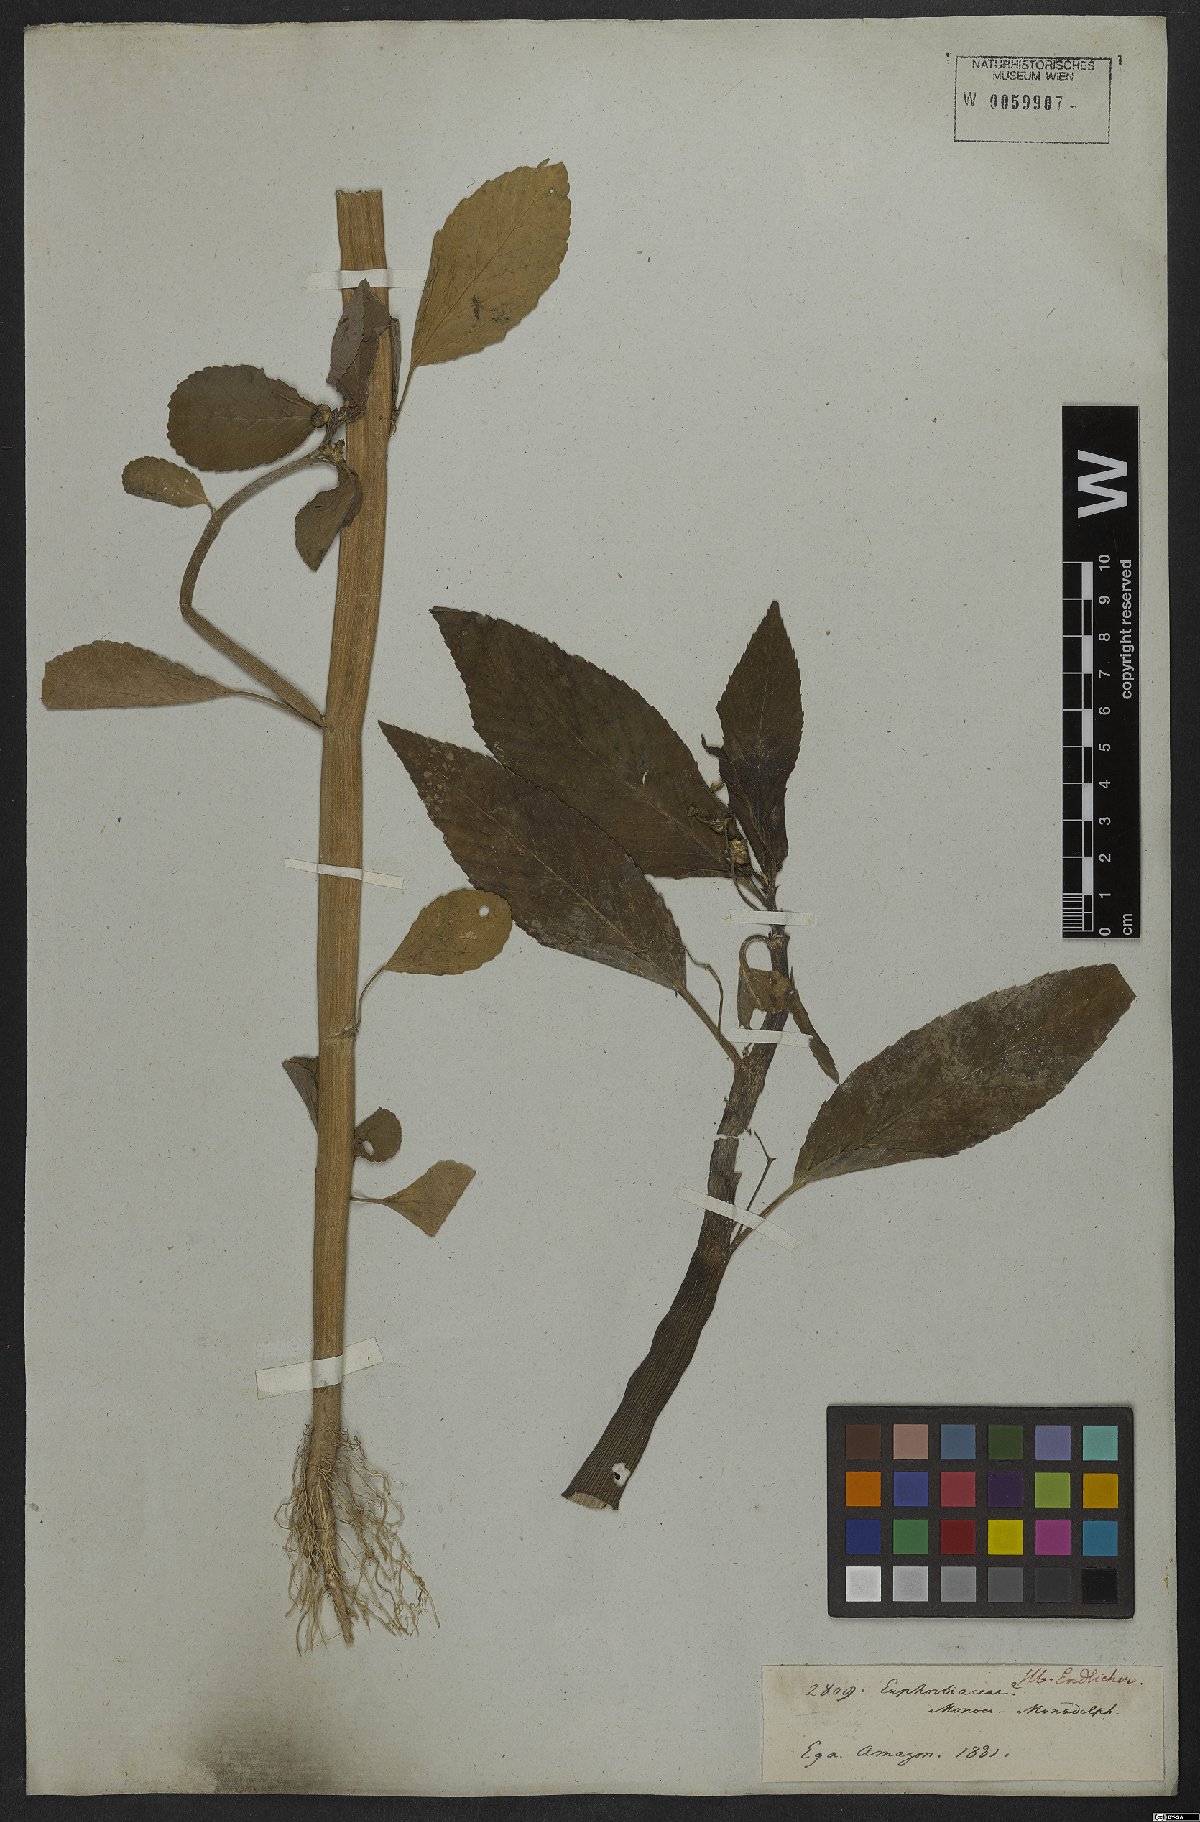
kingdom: Plantae
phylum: Tracheophyta
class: Magnoliopsida
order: Malpighiales
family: Euphorbiaceae
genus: Caperonia
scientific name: Caperonia castaneifolia
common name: Chestnutleaf false croton
